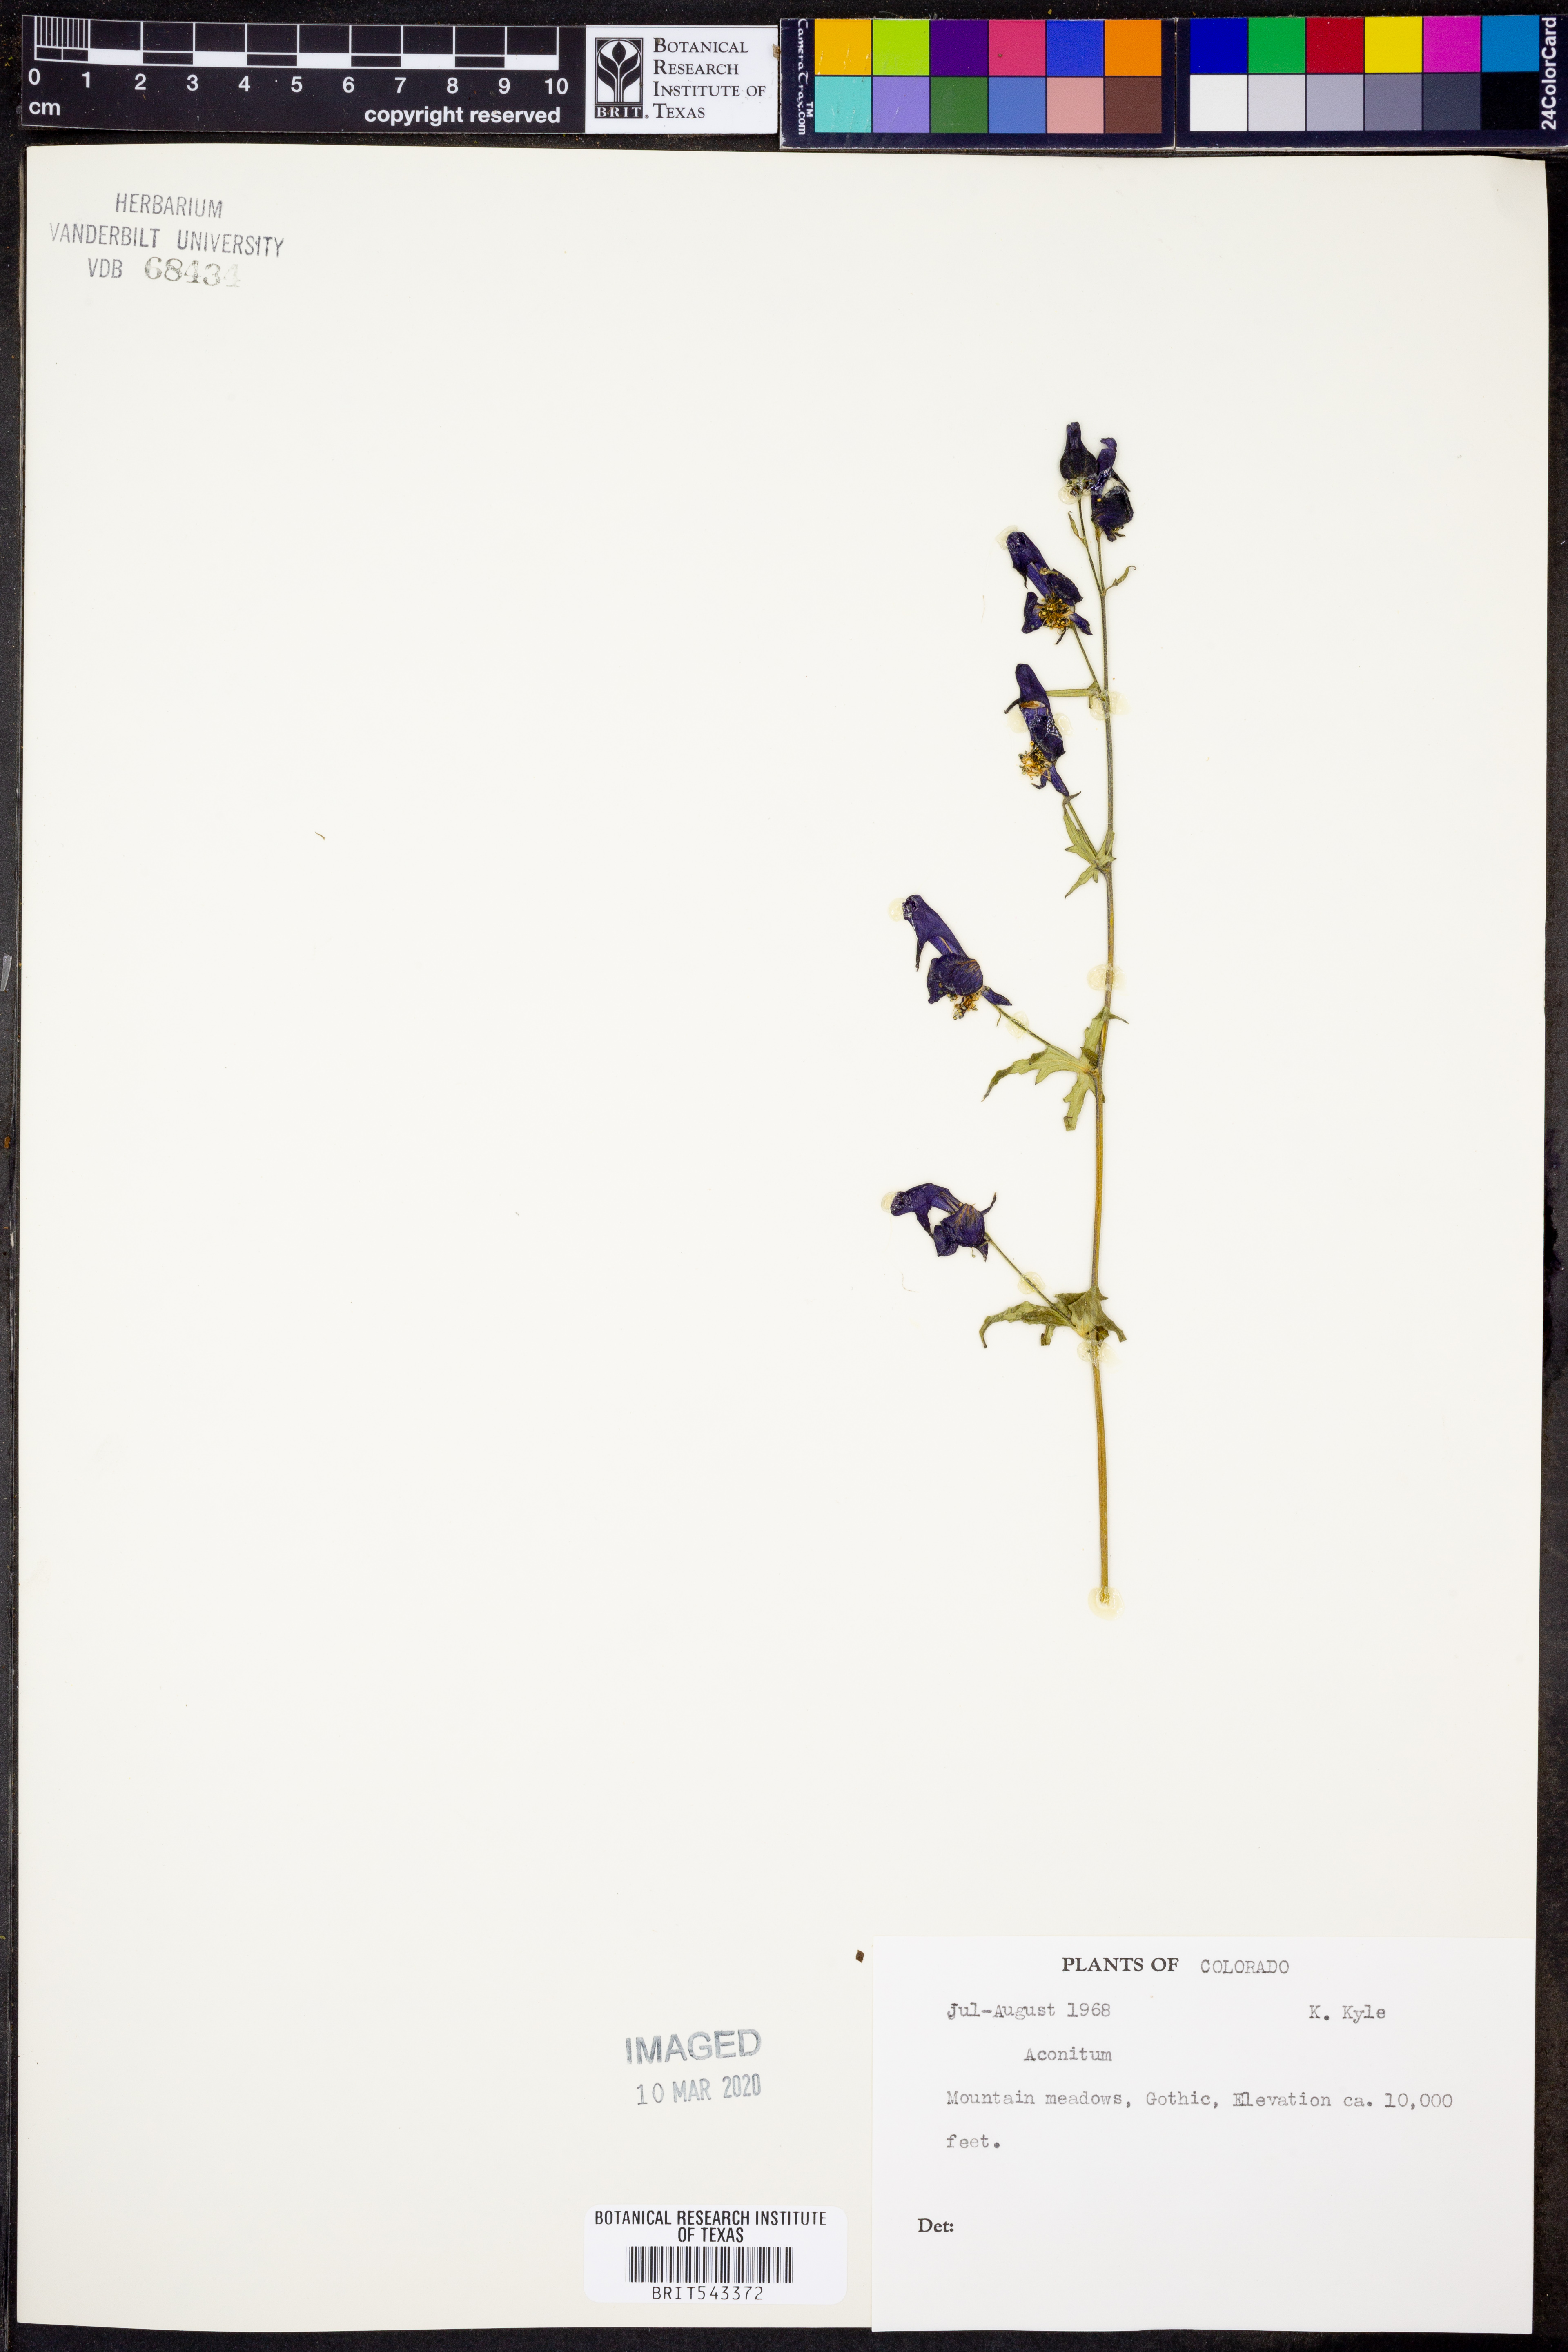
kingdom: Plantae
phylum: Tracheophyta
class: Magnoliopsida
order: Ranunculales
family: Ranunculaceae
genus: Aconitum
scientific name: Aconitum
